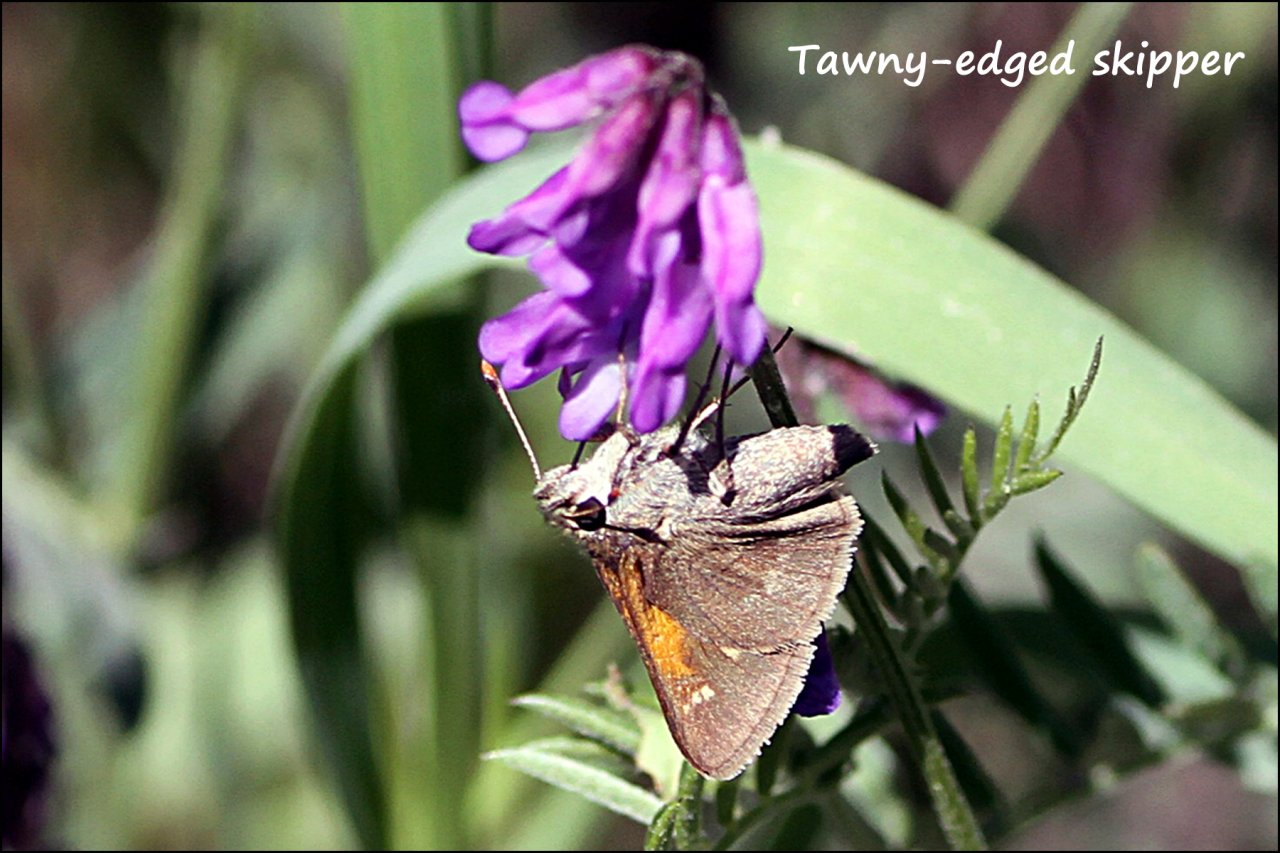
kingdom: Animalia
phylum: Arthropoda
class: Insecta
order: Lepidoptera
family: Hesperiidae
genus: Polites
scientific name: Polites themistocles
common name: Tawny-edged Skipper
